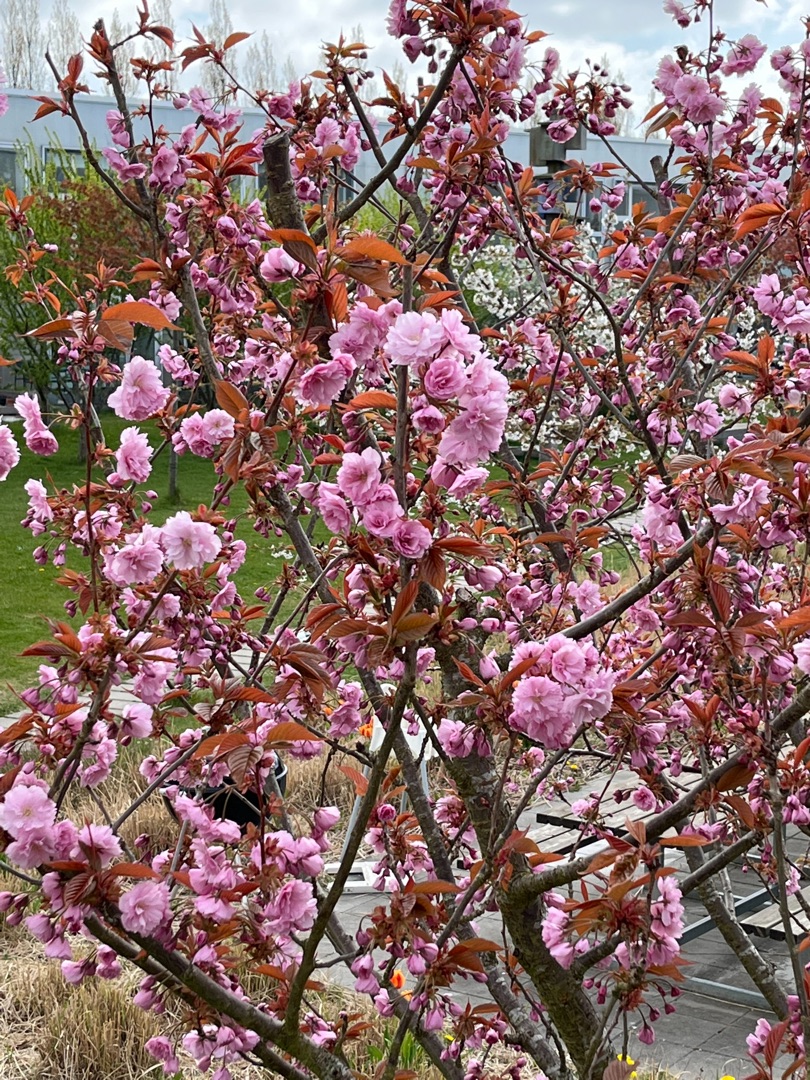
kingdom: Plantae
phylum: Tracheophyta
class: Magnoliopsida
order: Rosales
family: Rosaceae
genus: Prunus
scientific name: Prunus
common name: Blommeslægten
